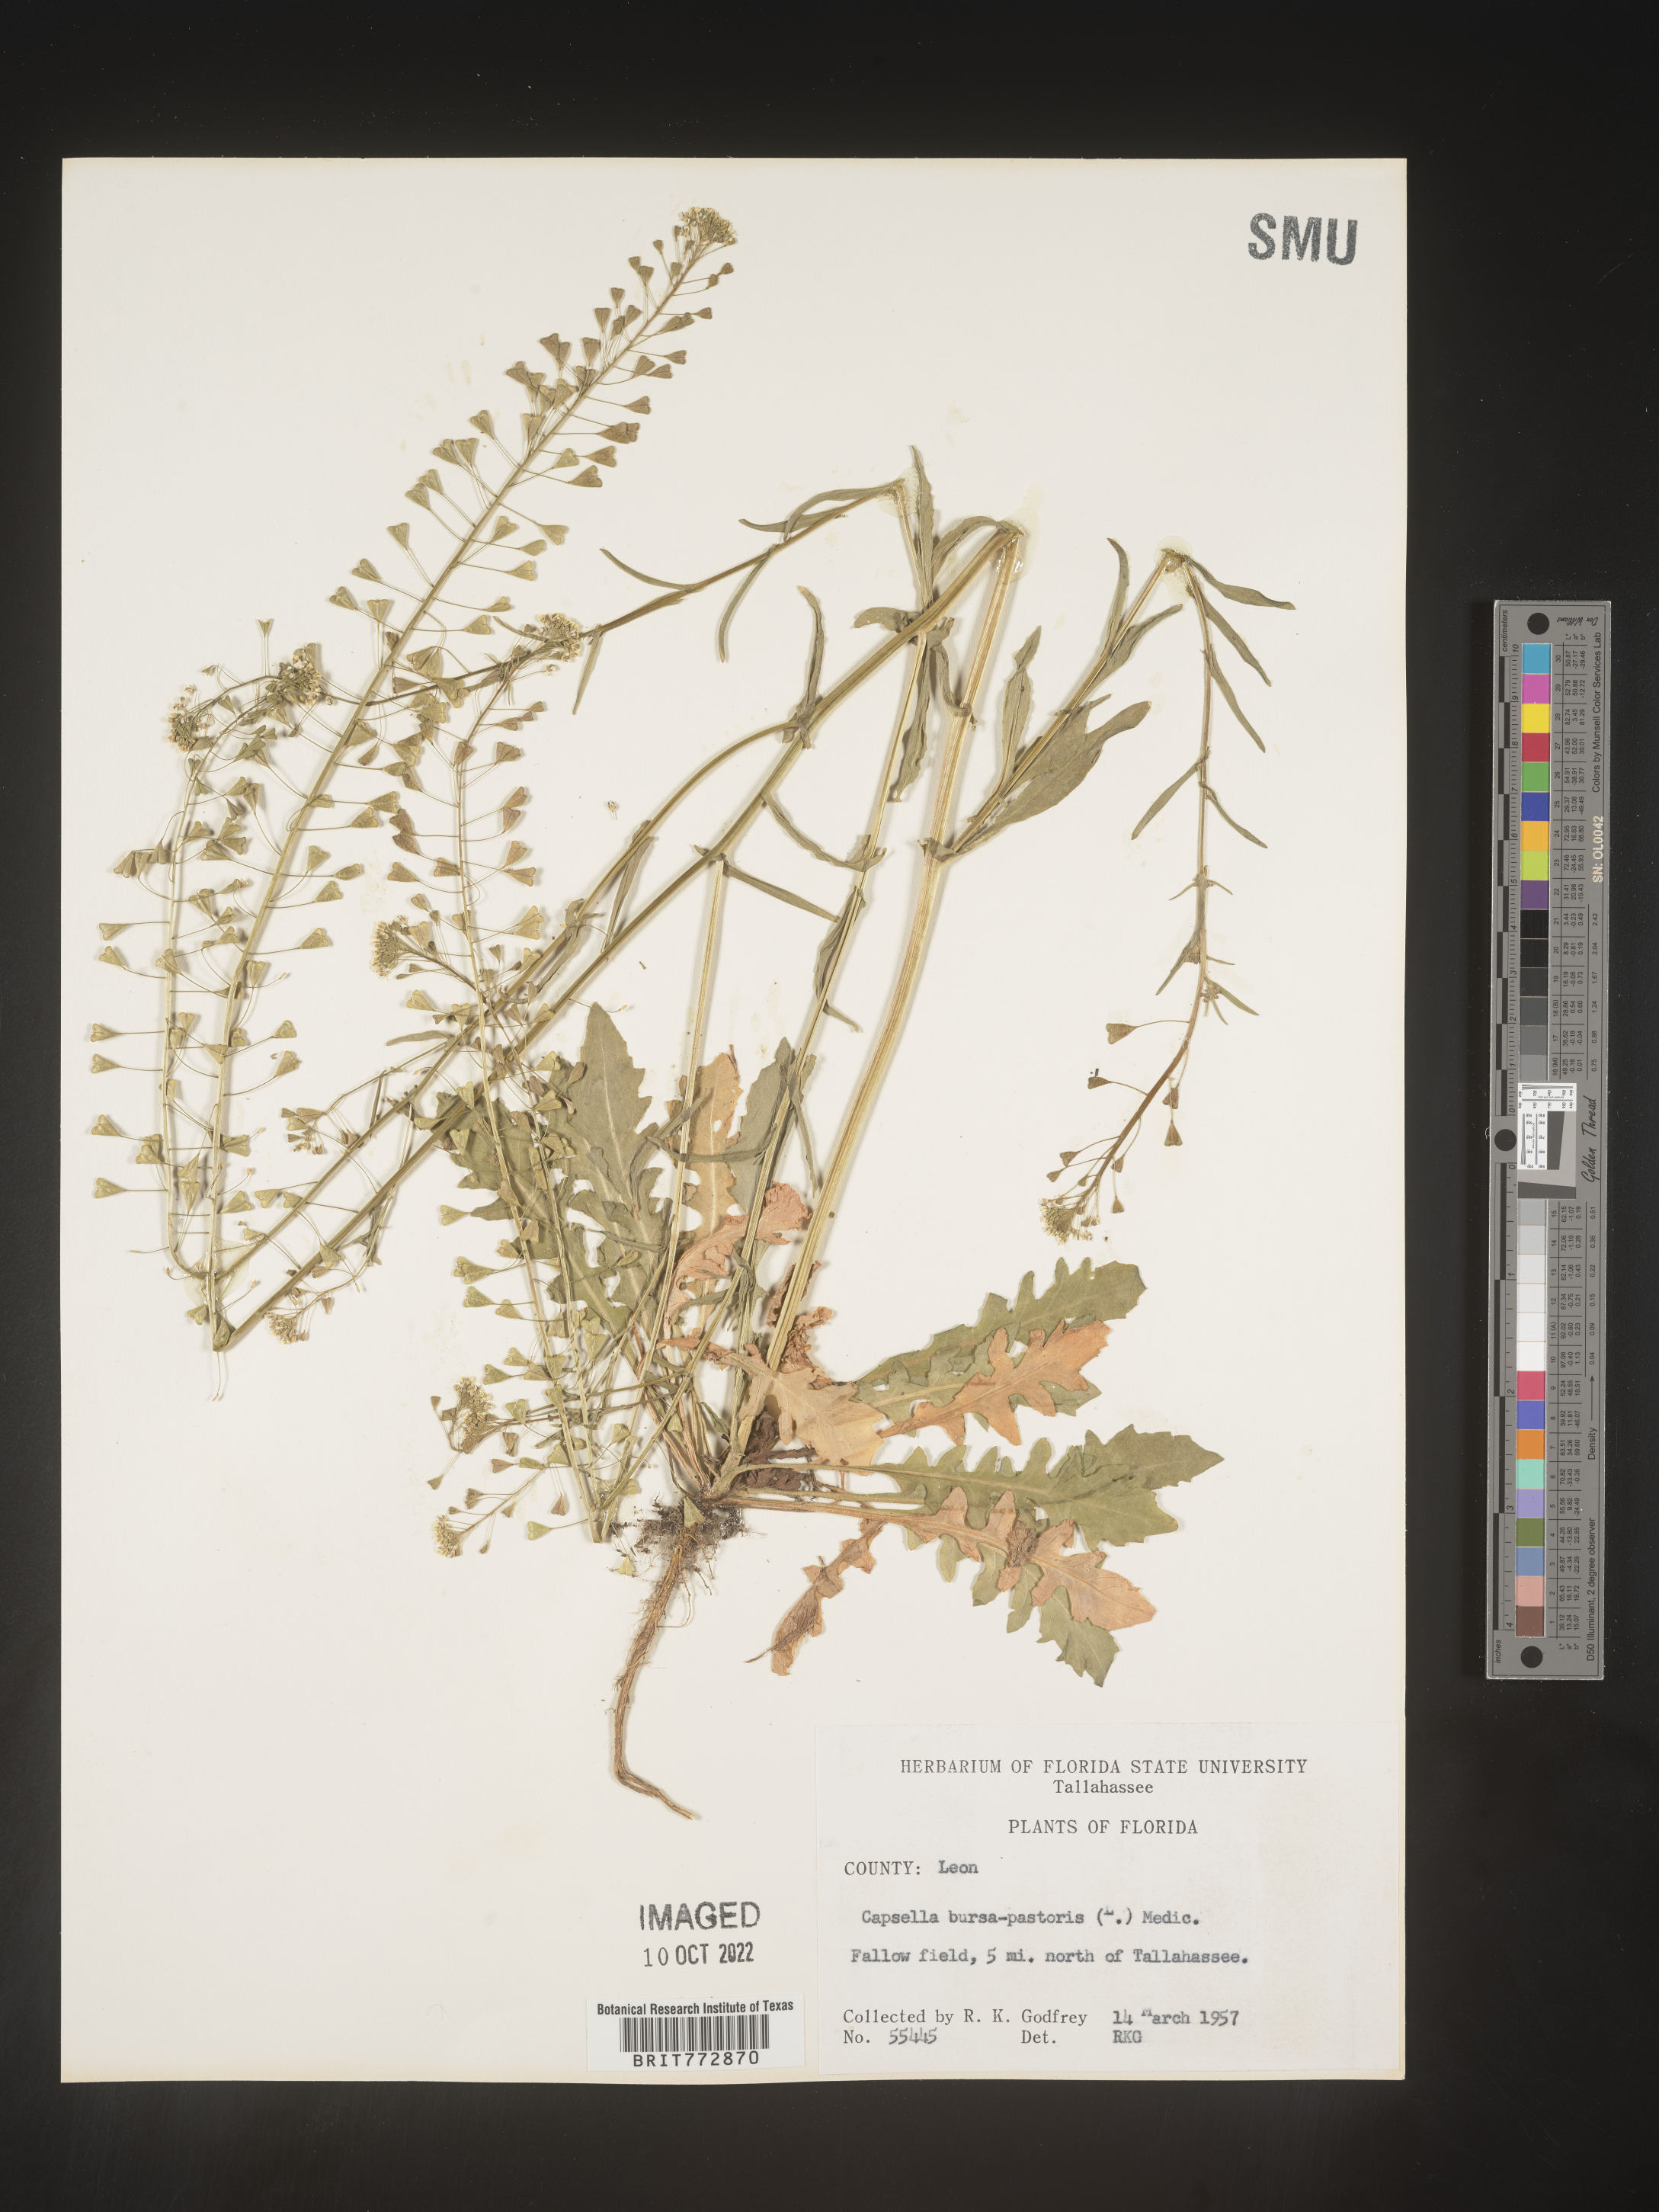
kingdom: Plantae
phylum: Tracheophyta
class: Magnoliopsida
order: Brassicales
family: Brassicaceae
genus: Capsella
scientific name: Capsella bursa-pastoris
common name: Shepherd's purse
